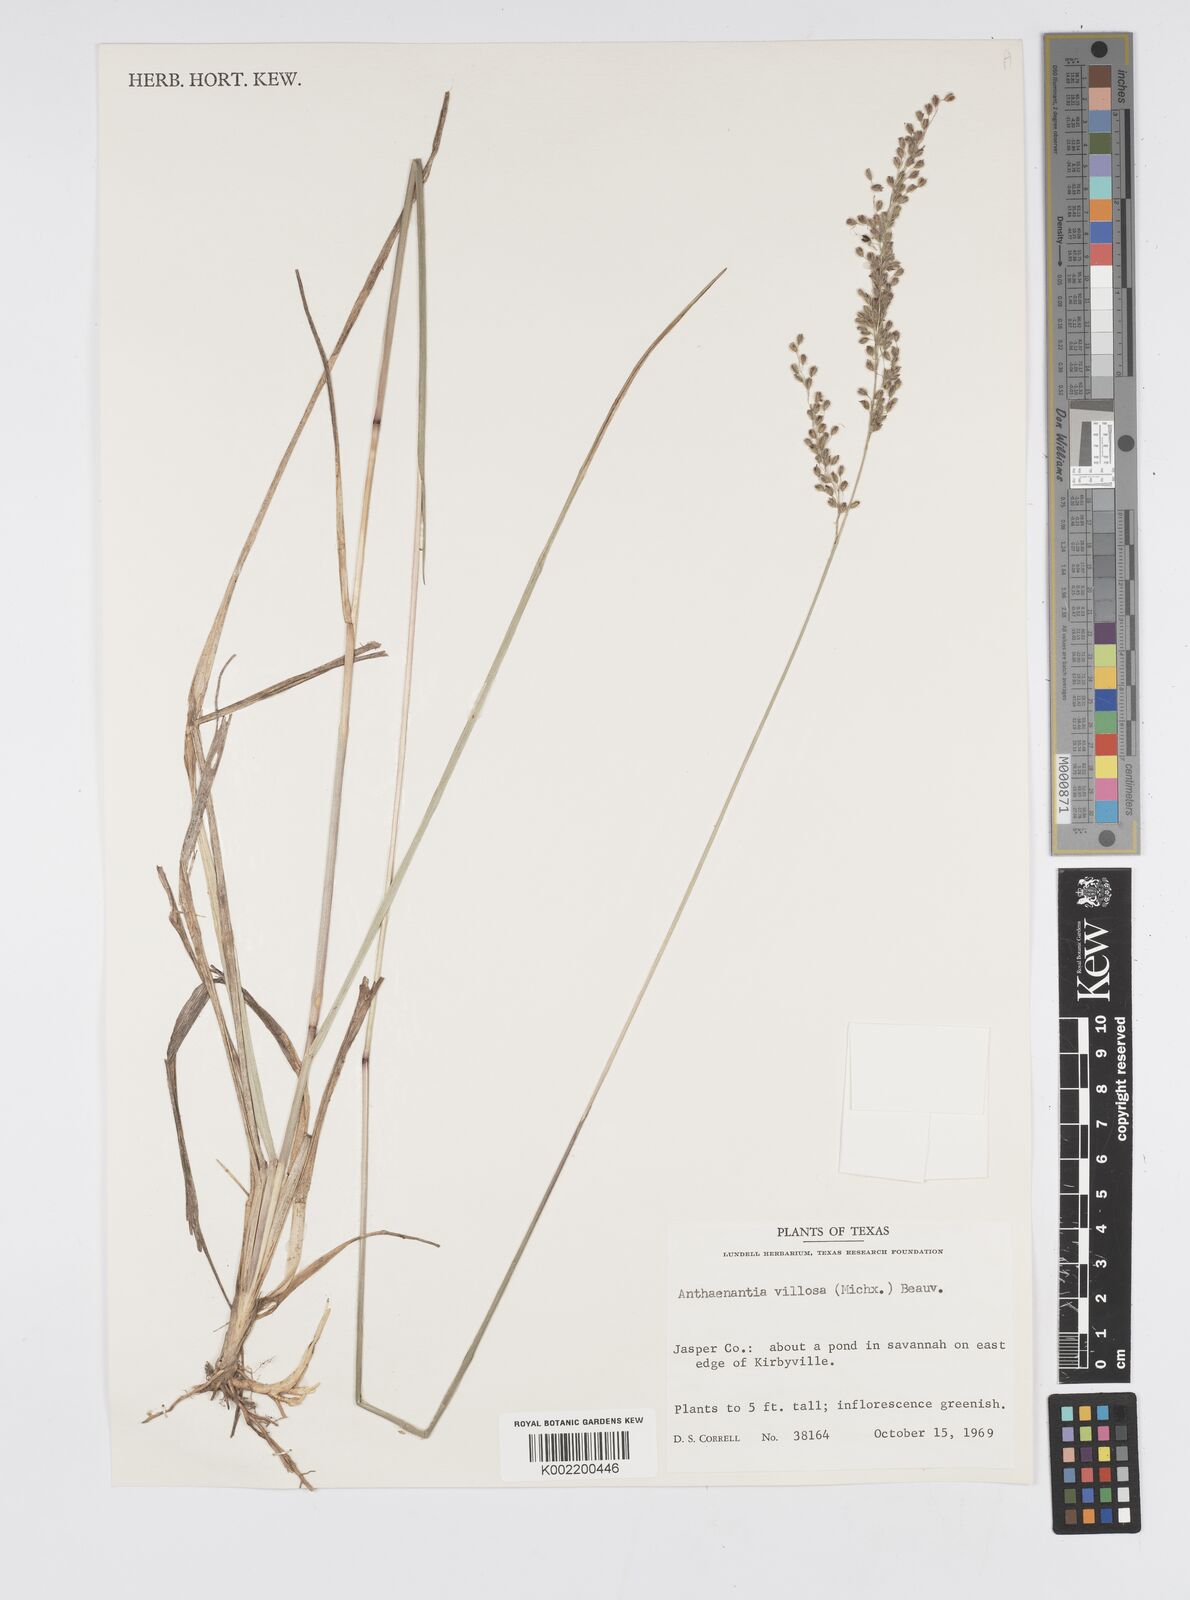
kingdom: Plantae
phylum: Tracheophyta
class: Liliopsida
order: Poales
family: Poaceae
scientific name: Poaceae
